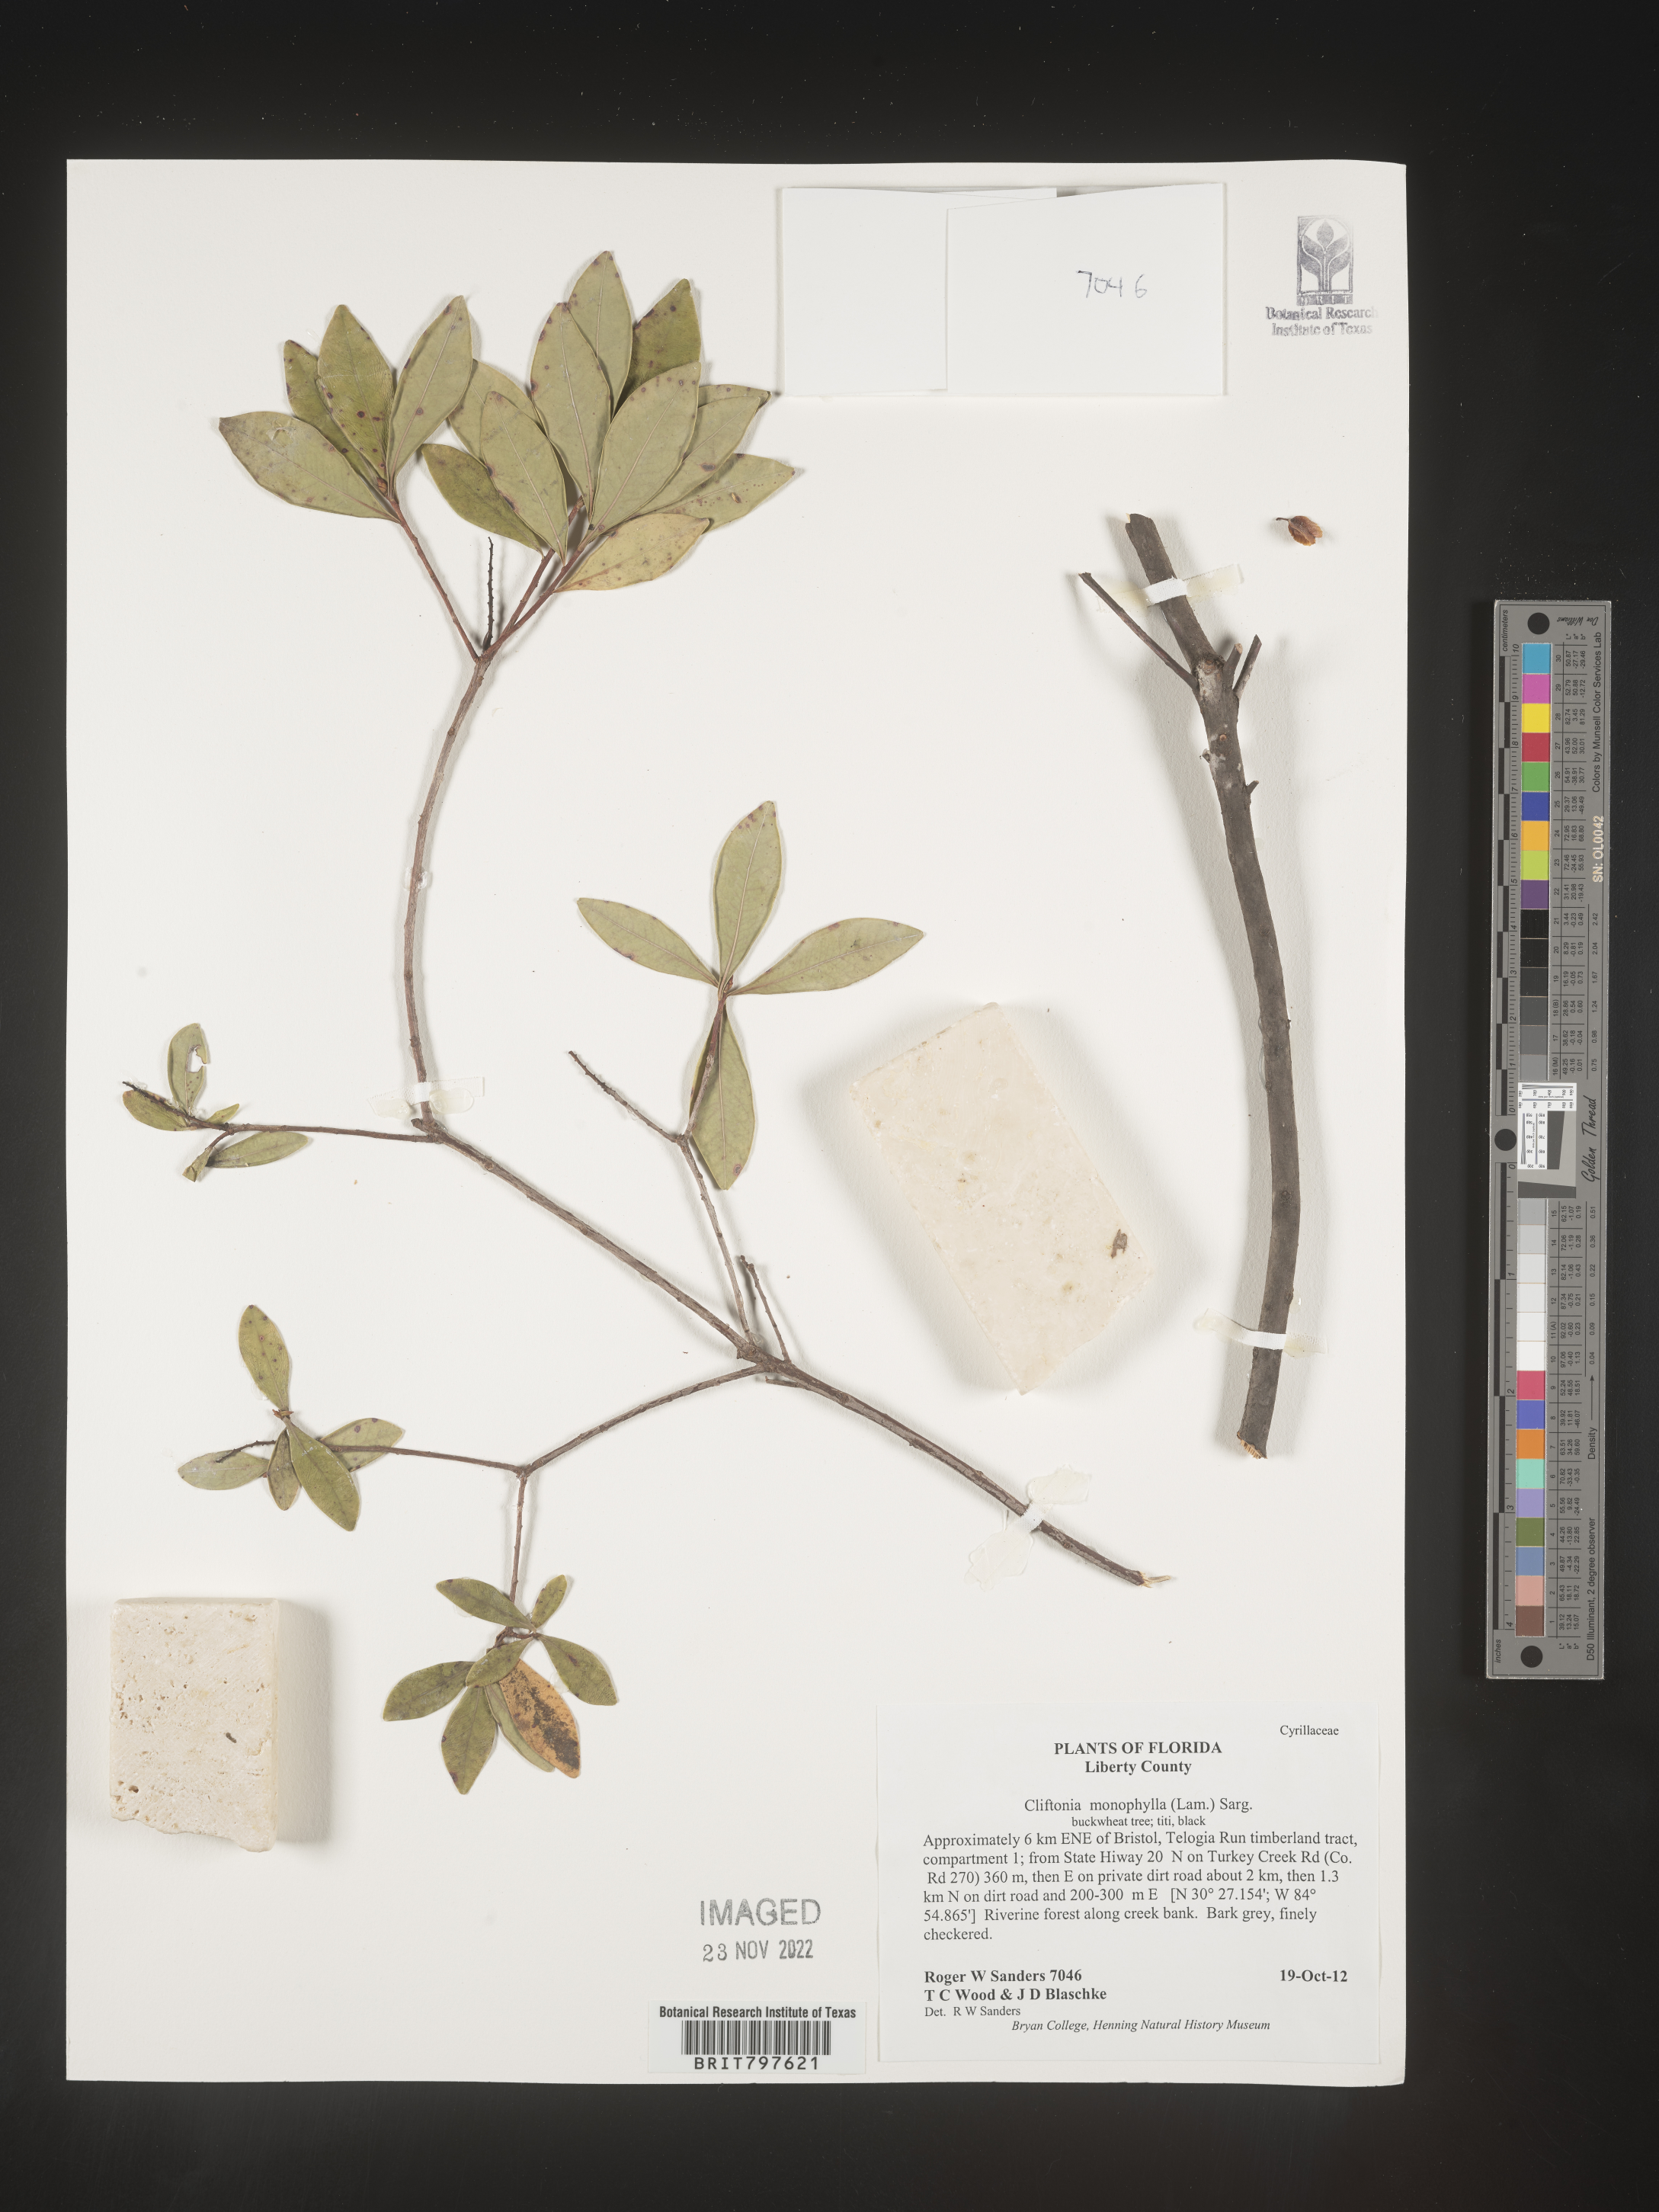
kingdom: Plantae
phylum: Tracheophyta
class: Magnoliopsida
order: Ericales
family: Cyrillaceae
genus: Cliftonia
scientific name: Cliftonia monophylla
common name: Titi
